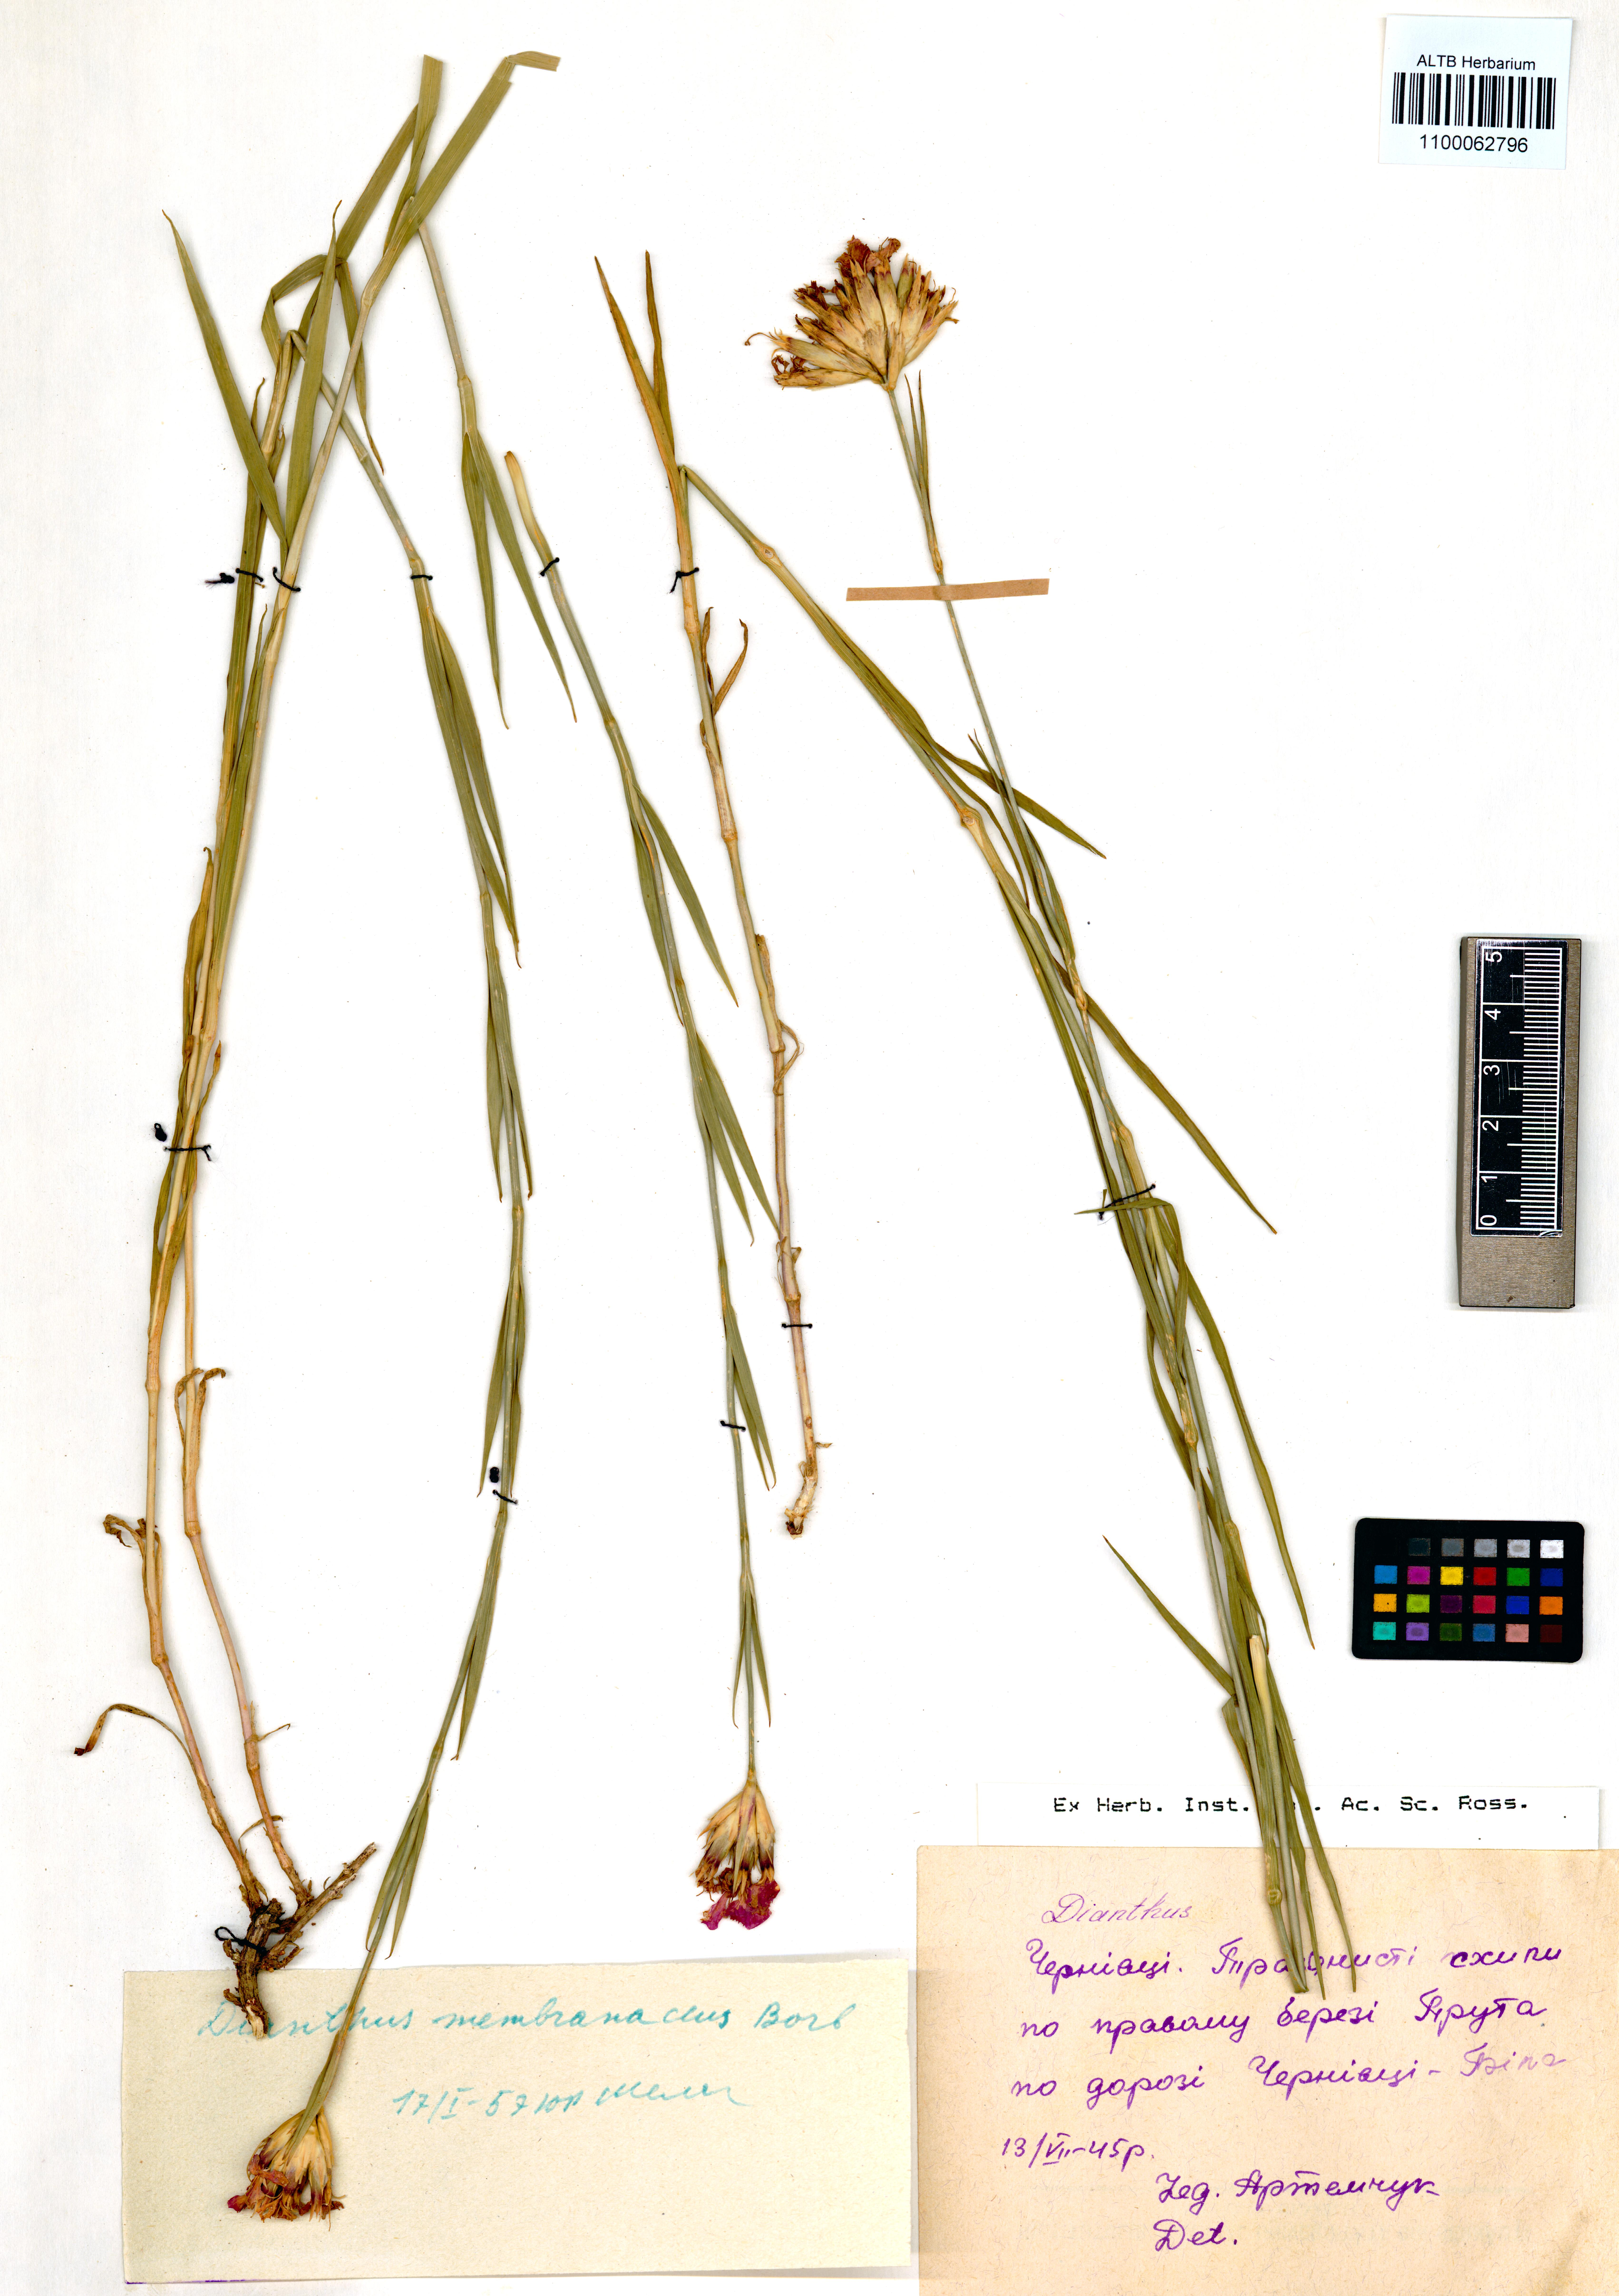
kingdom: Plantae
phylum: Tracheophyta
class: Magnoliopsida
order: Caryophyllales
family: Caryophyllaceae
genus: Dianthus
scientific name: Dianthus membranaceus
